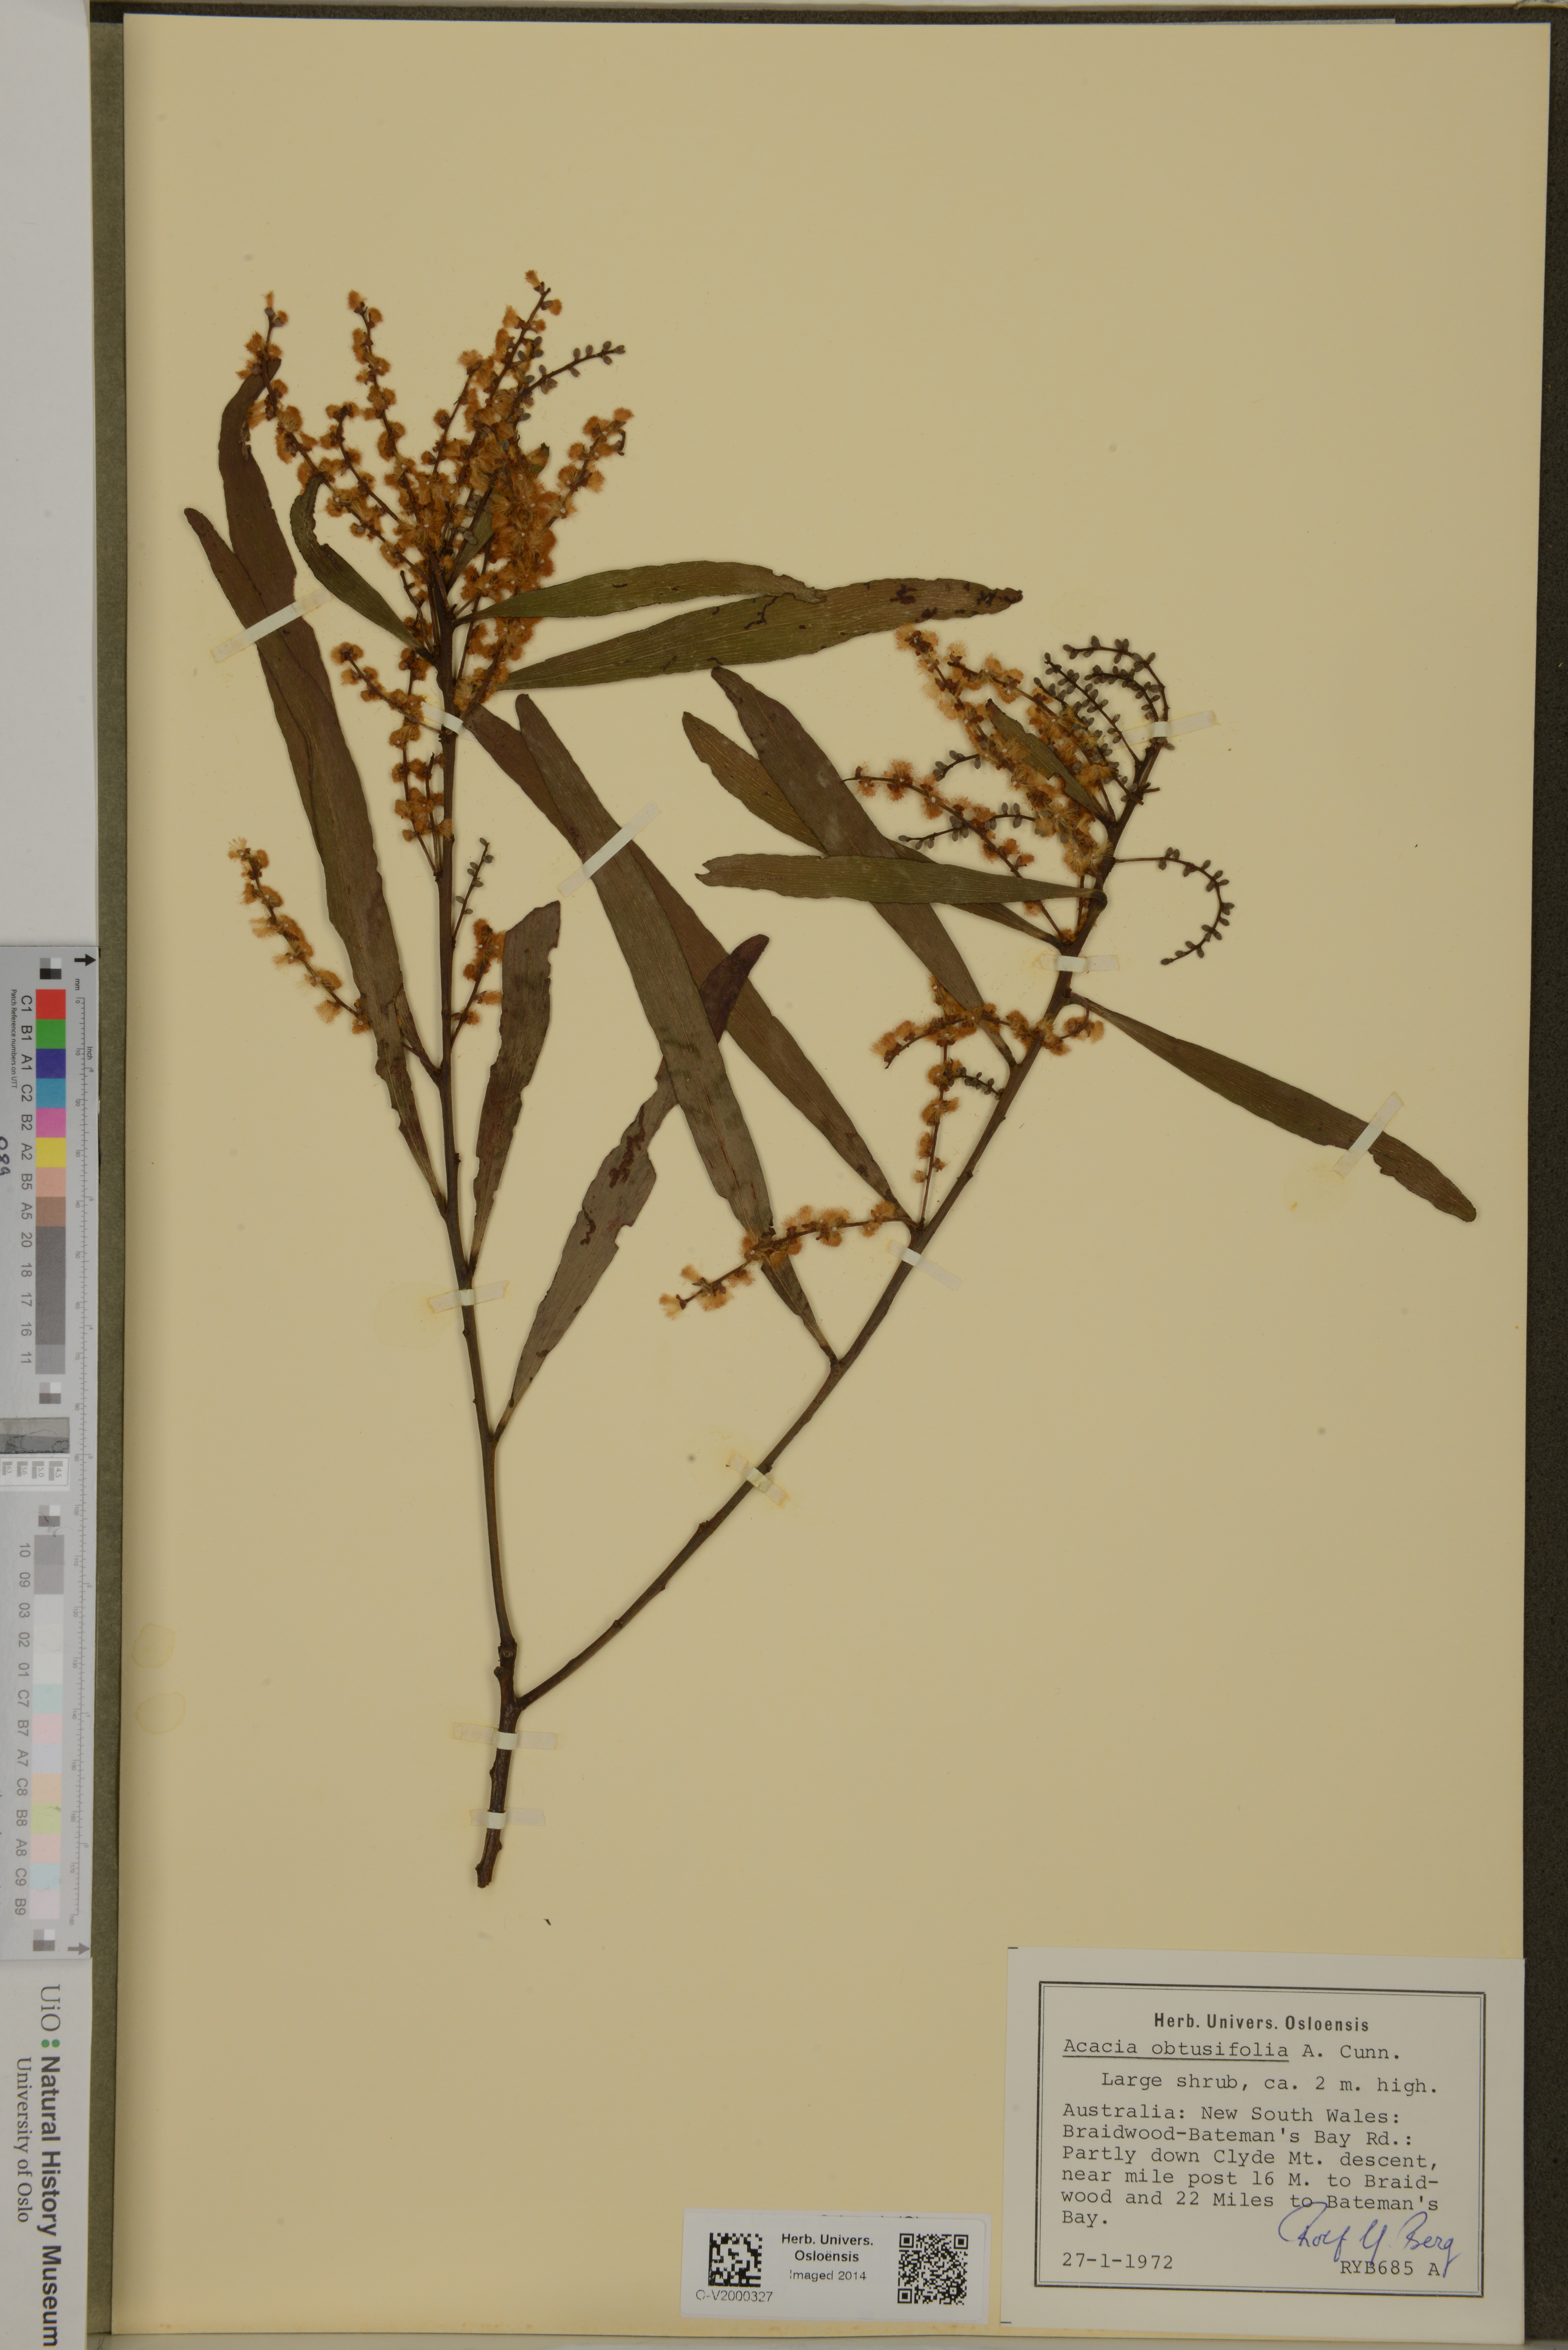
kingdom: Plantae
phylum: Tracheophyta
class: Magnoliopsida
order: Fabales
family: Fabaceae
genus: Acacia
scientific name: Acacia obtusifolia
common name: Stiff-leaf wattle
